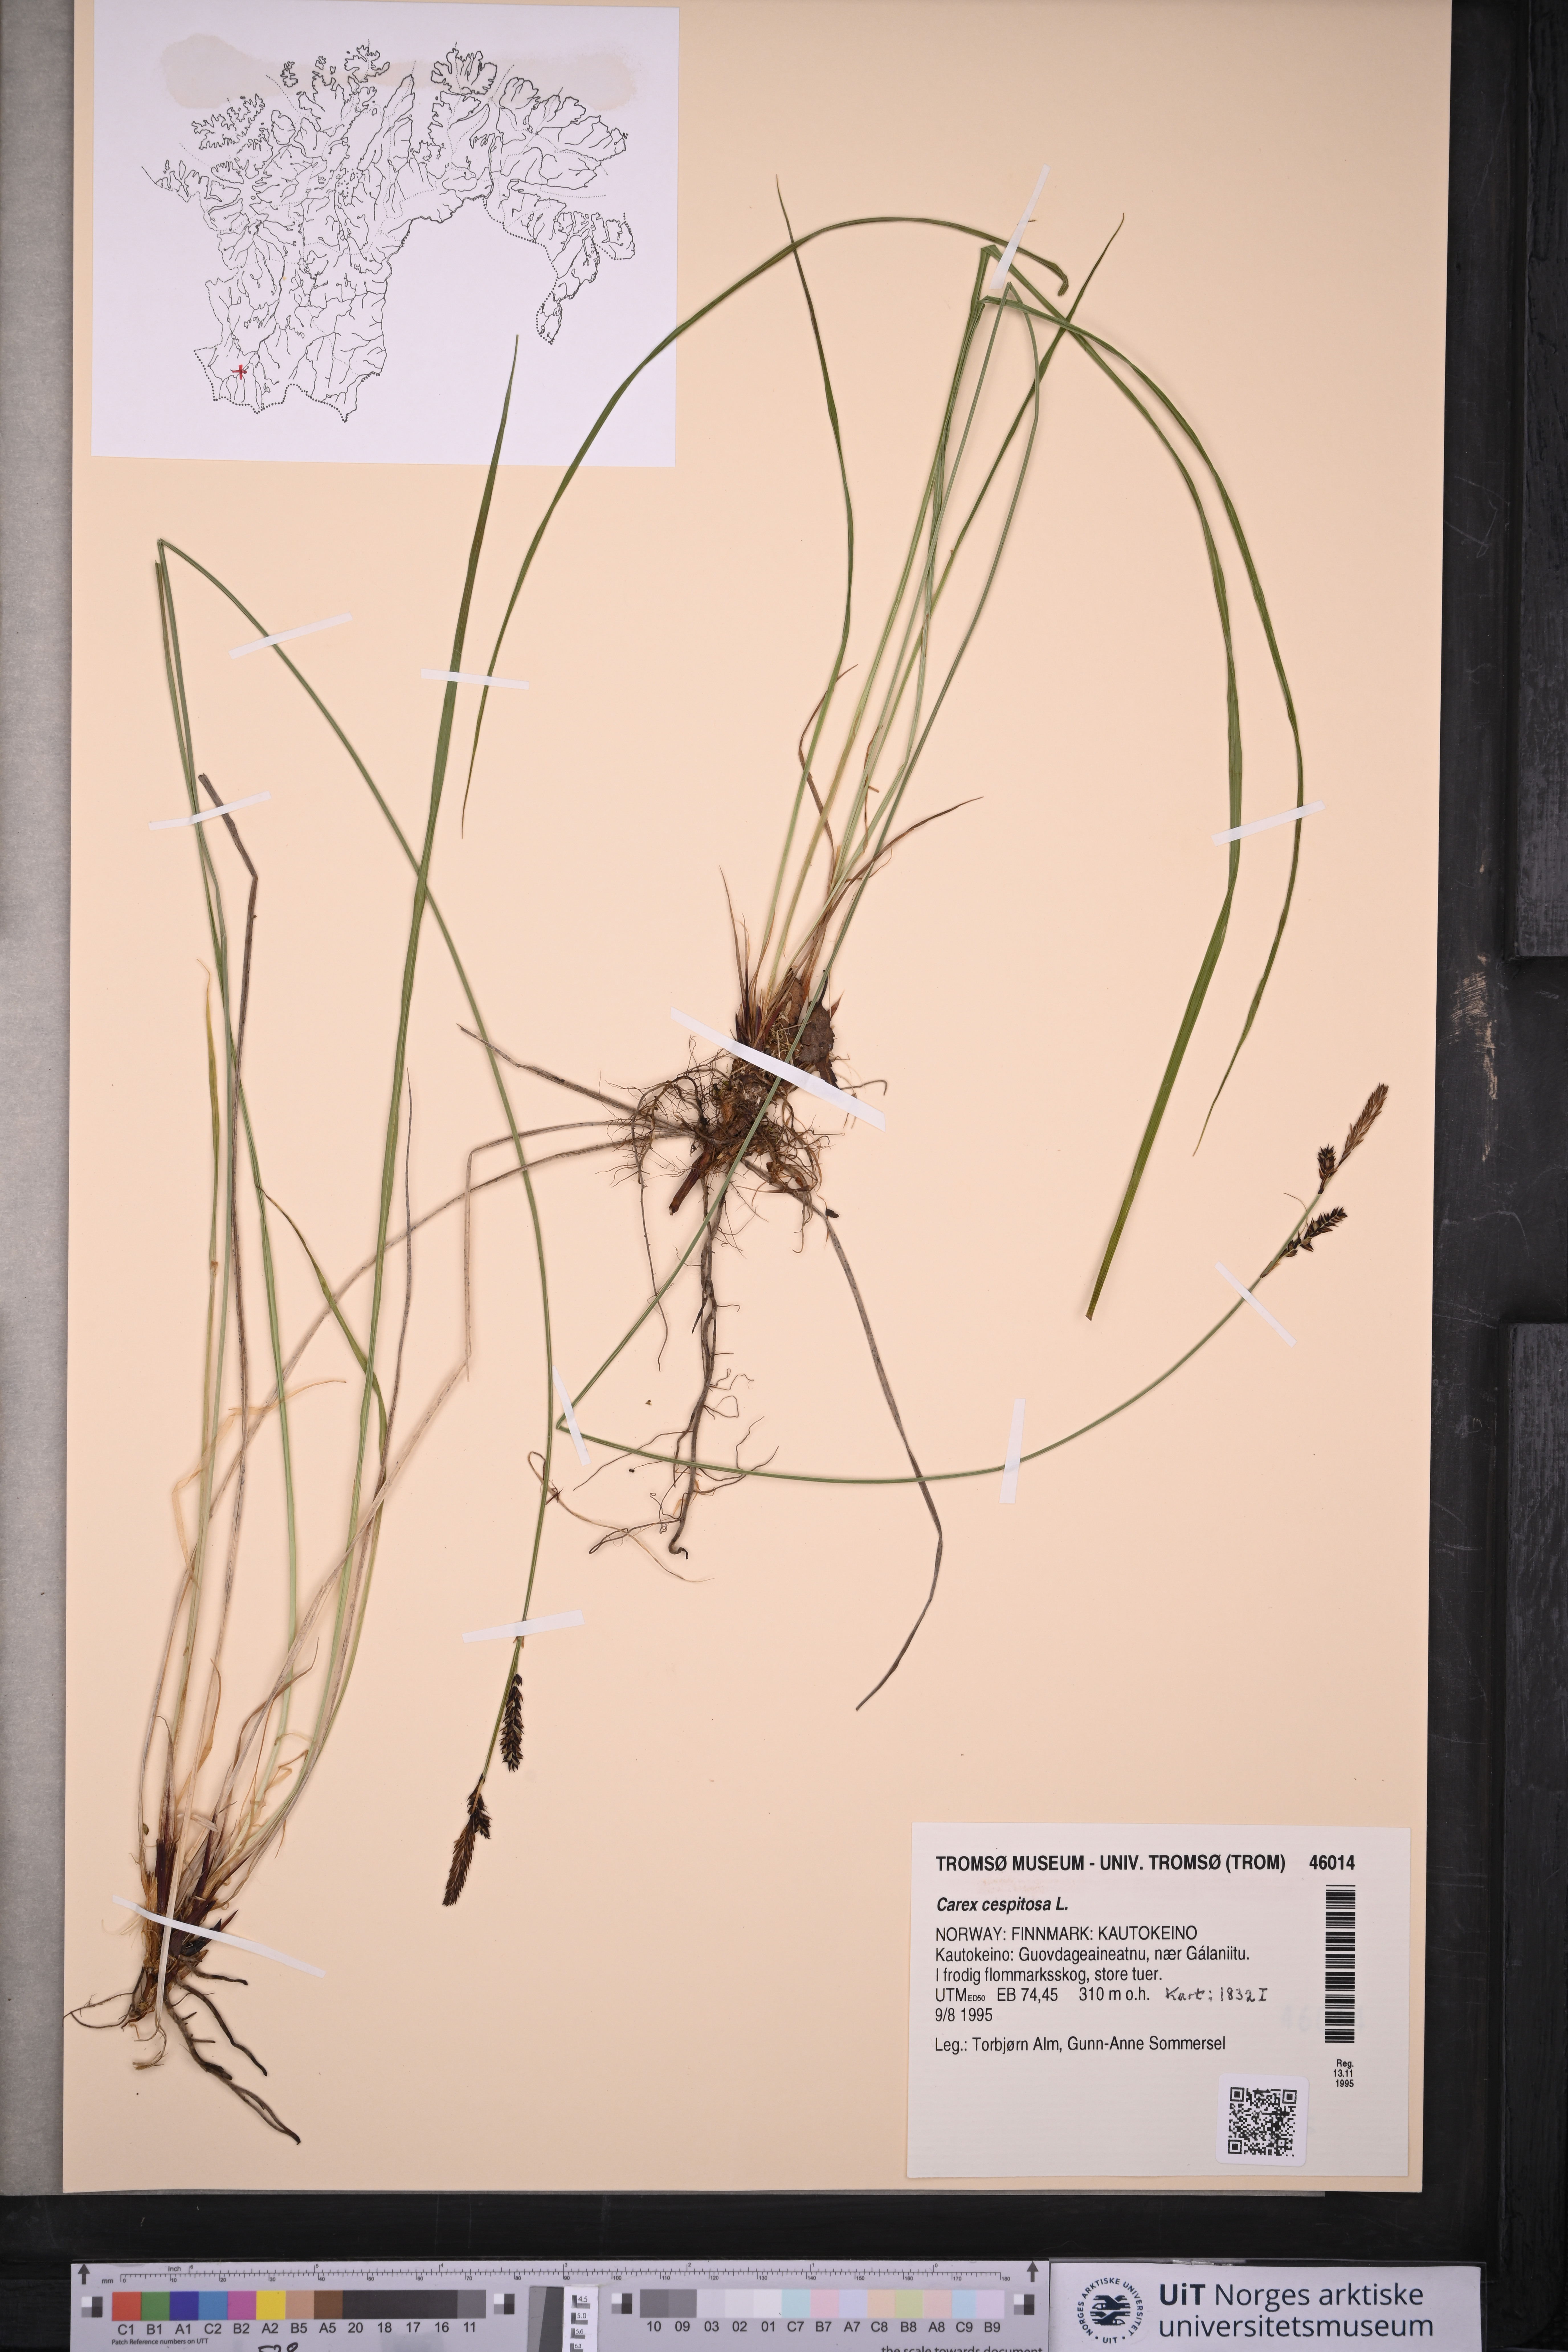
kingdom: Plantae
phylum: Tracheophyta
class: Liliopsida
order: Poales
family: Cyperaceae
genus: Carex
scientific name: Carex cespitosa
